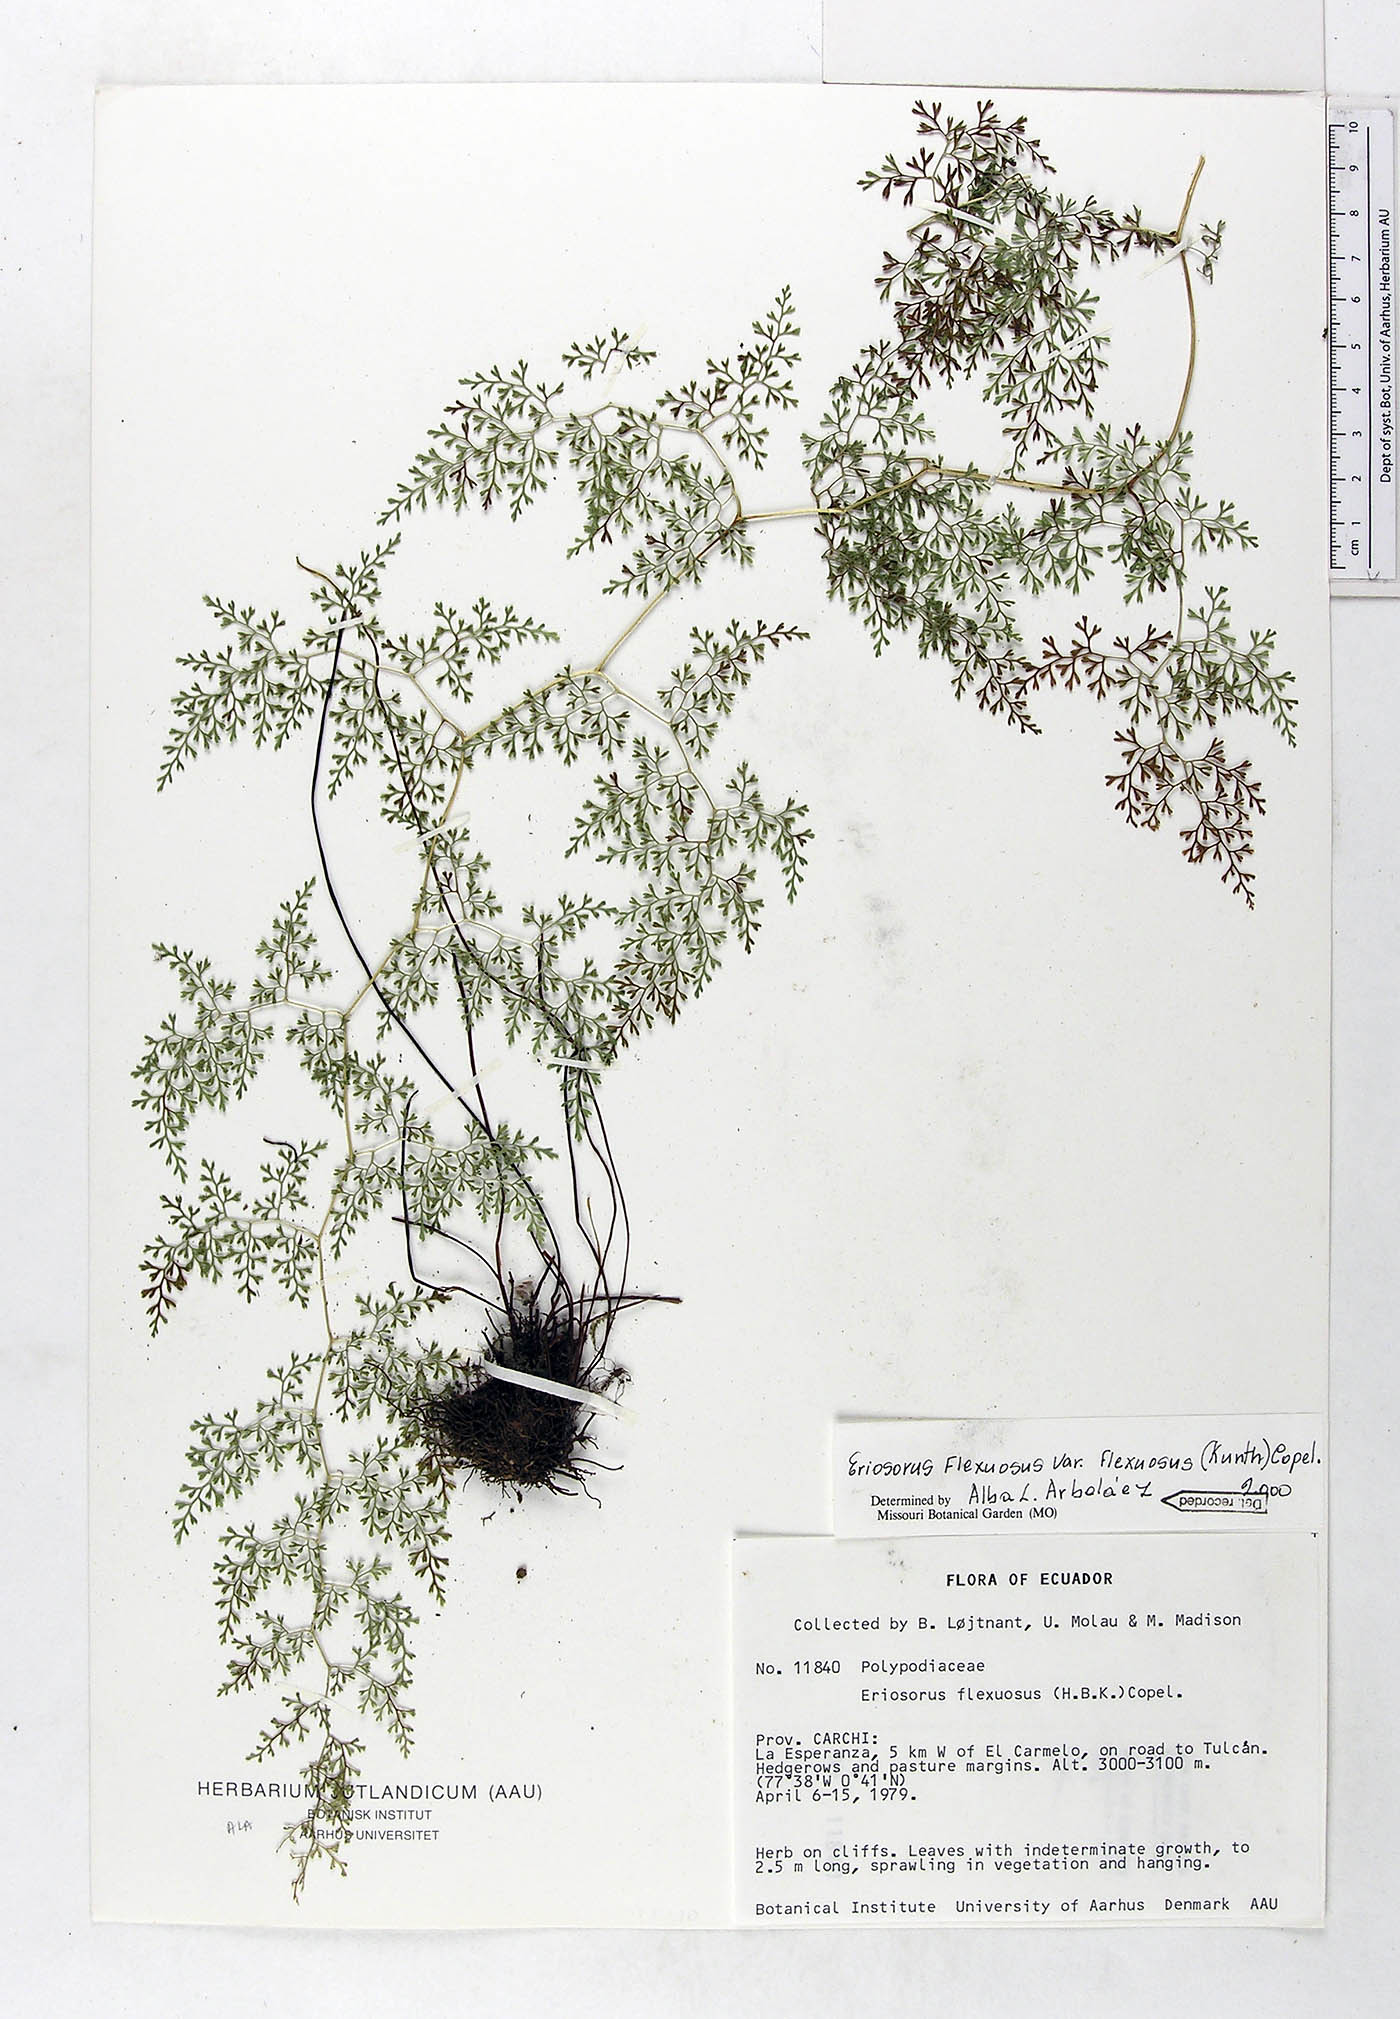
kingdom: Plantae
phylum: Tracheophyta
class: Polypodiopsida
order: Polypodiales
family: Pteridaceae
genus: Jamesonia
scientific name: Jamesonia flexuosa
